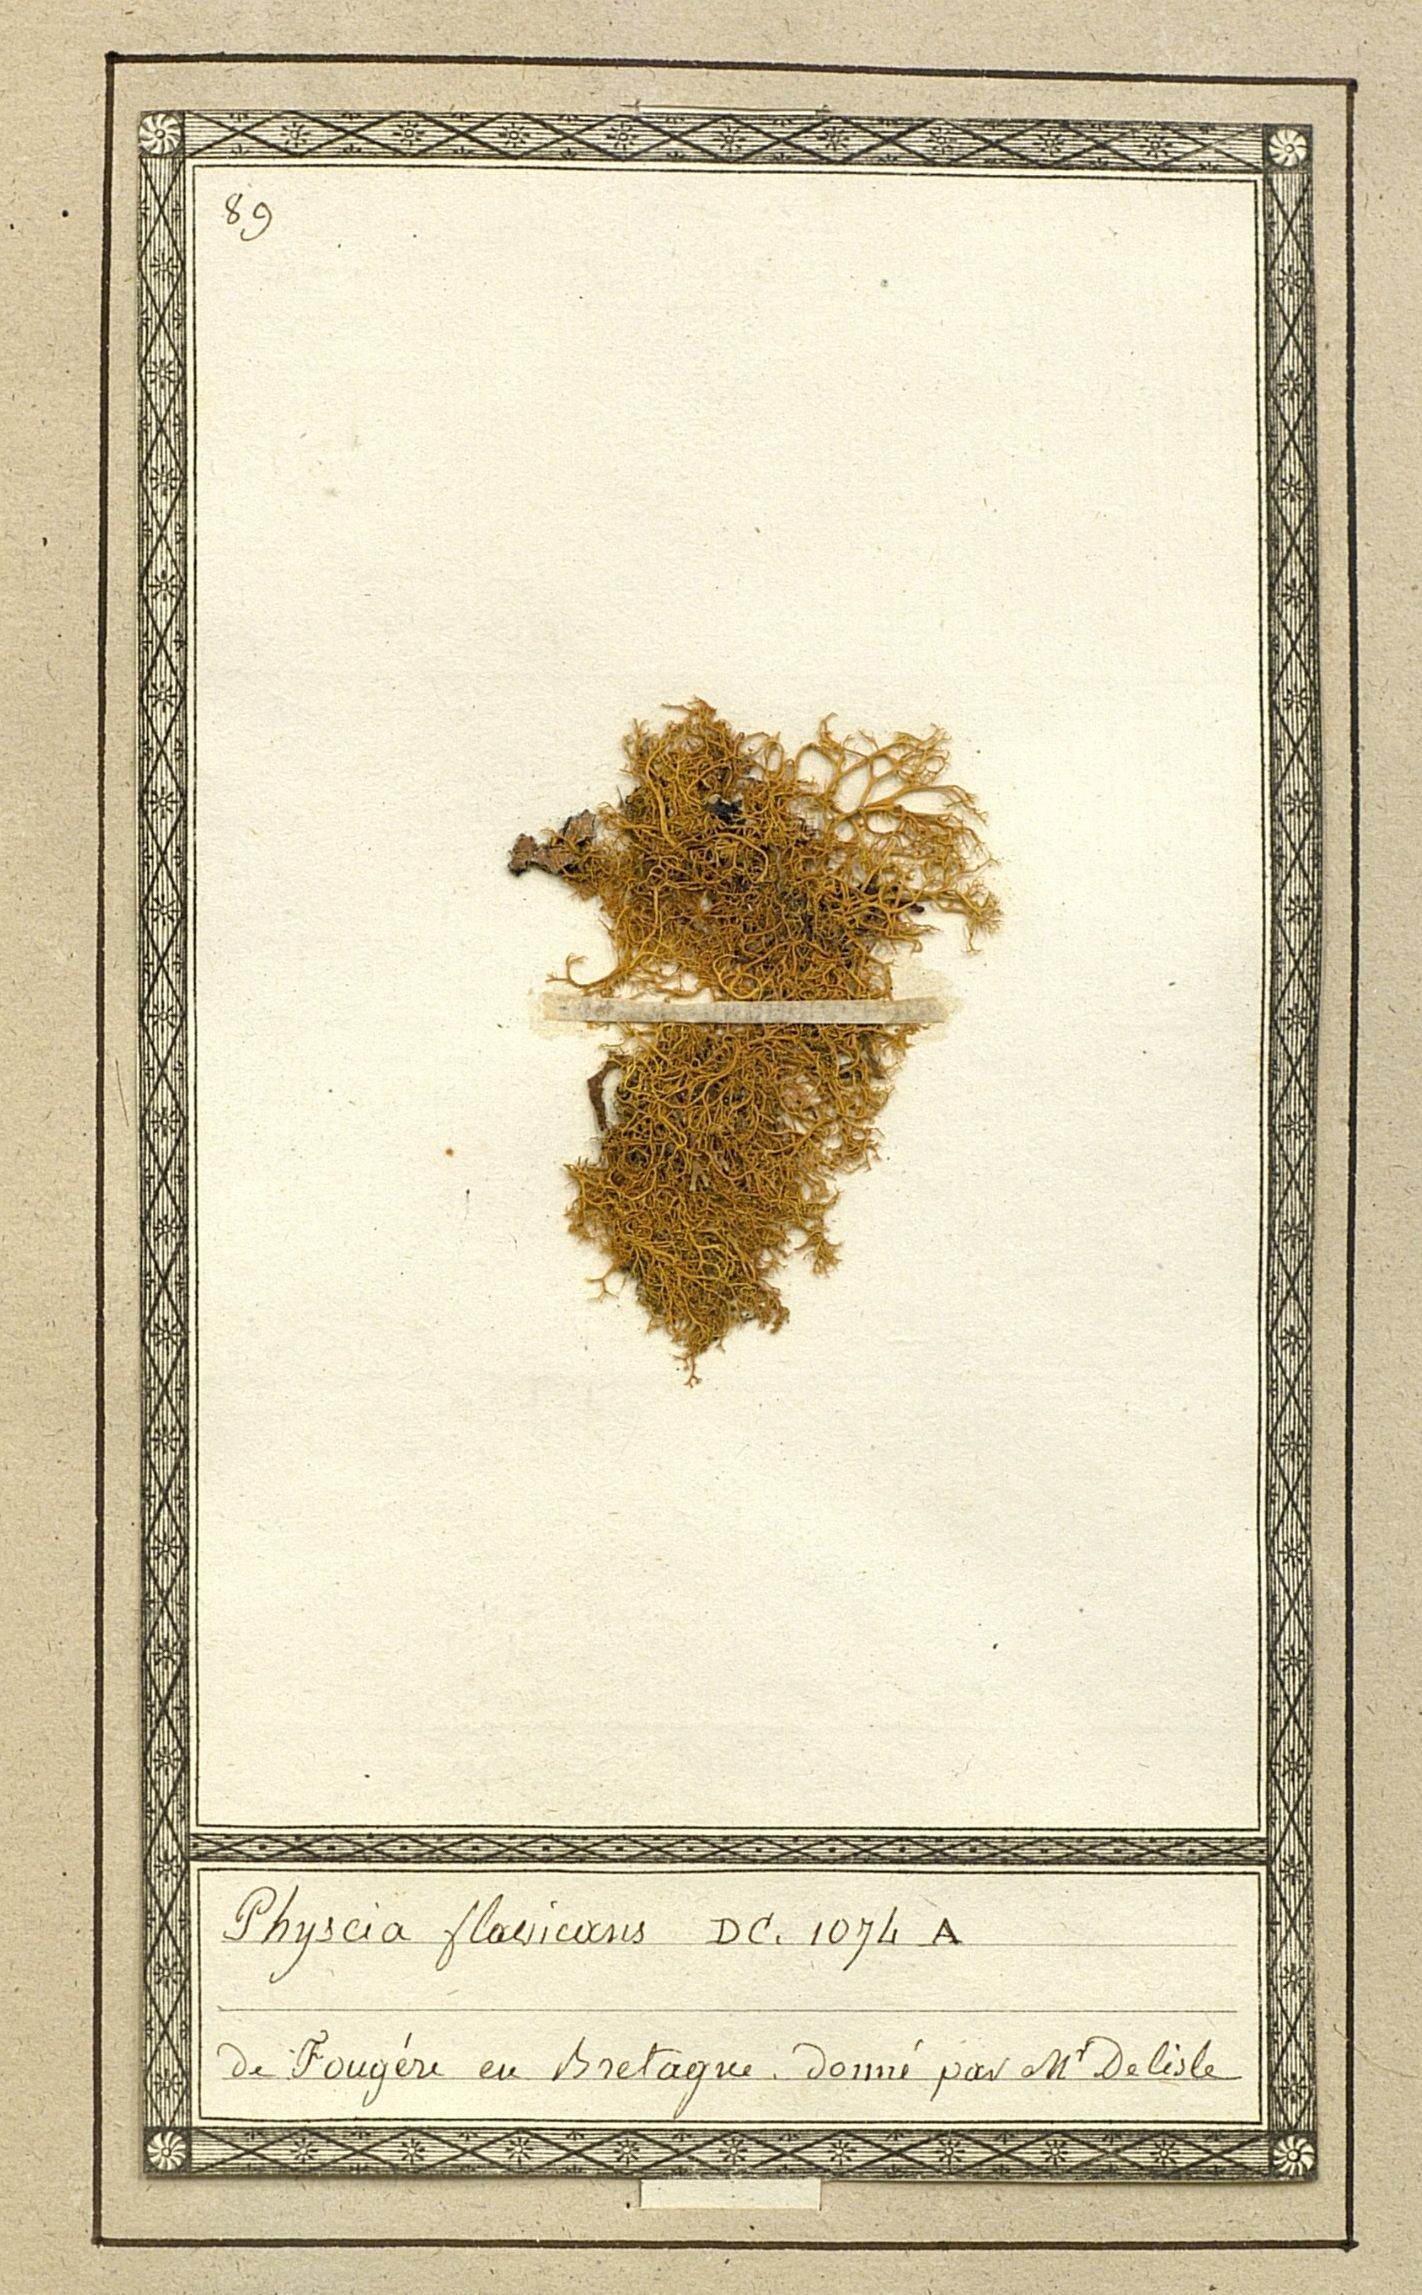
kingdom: Fungi
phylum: Ascomycota
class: Lecanoromycetes
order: Teloschistales
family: Teloschistaceae
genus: Teloschistes
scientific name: Teloschistes flavicans
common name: Golden hair-lichen
